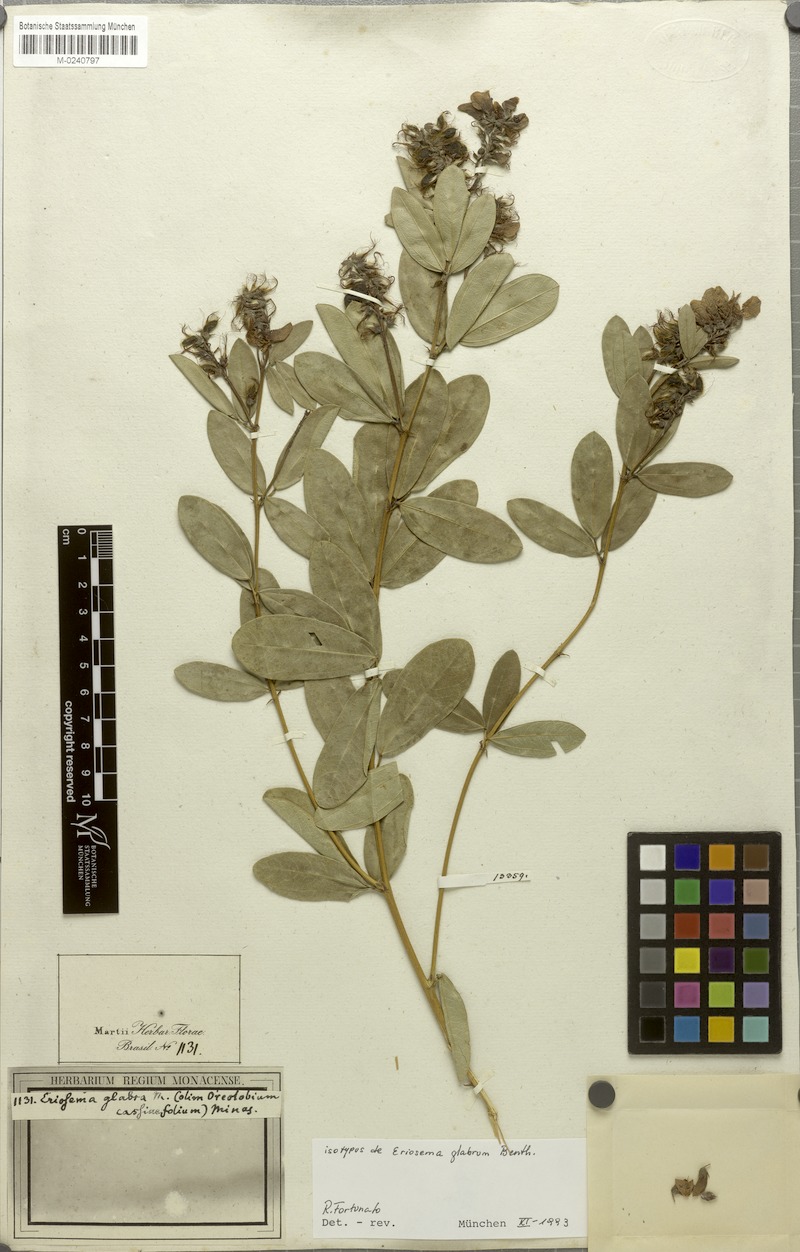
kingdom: Plantae
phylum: Tracheophyta
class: Magnoliopsida
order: Fabales
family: Fabaceae
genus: Eriosema
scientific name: Eriosema glabrum
